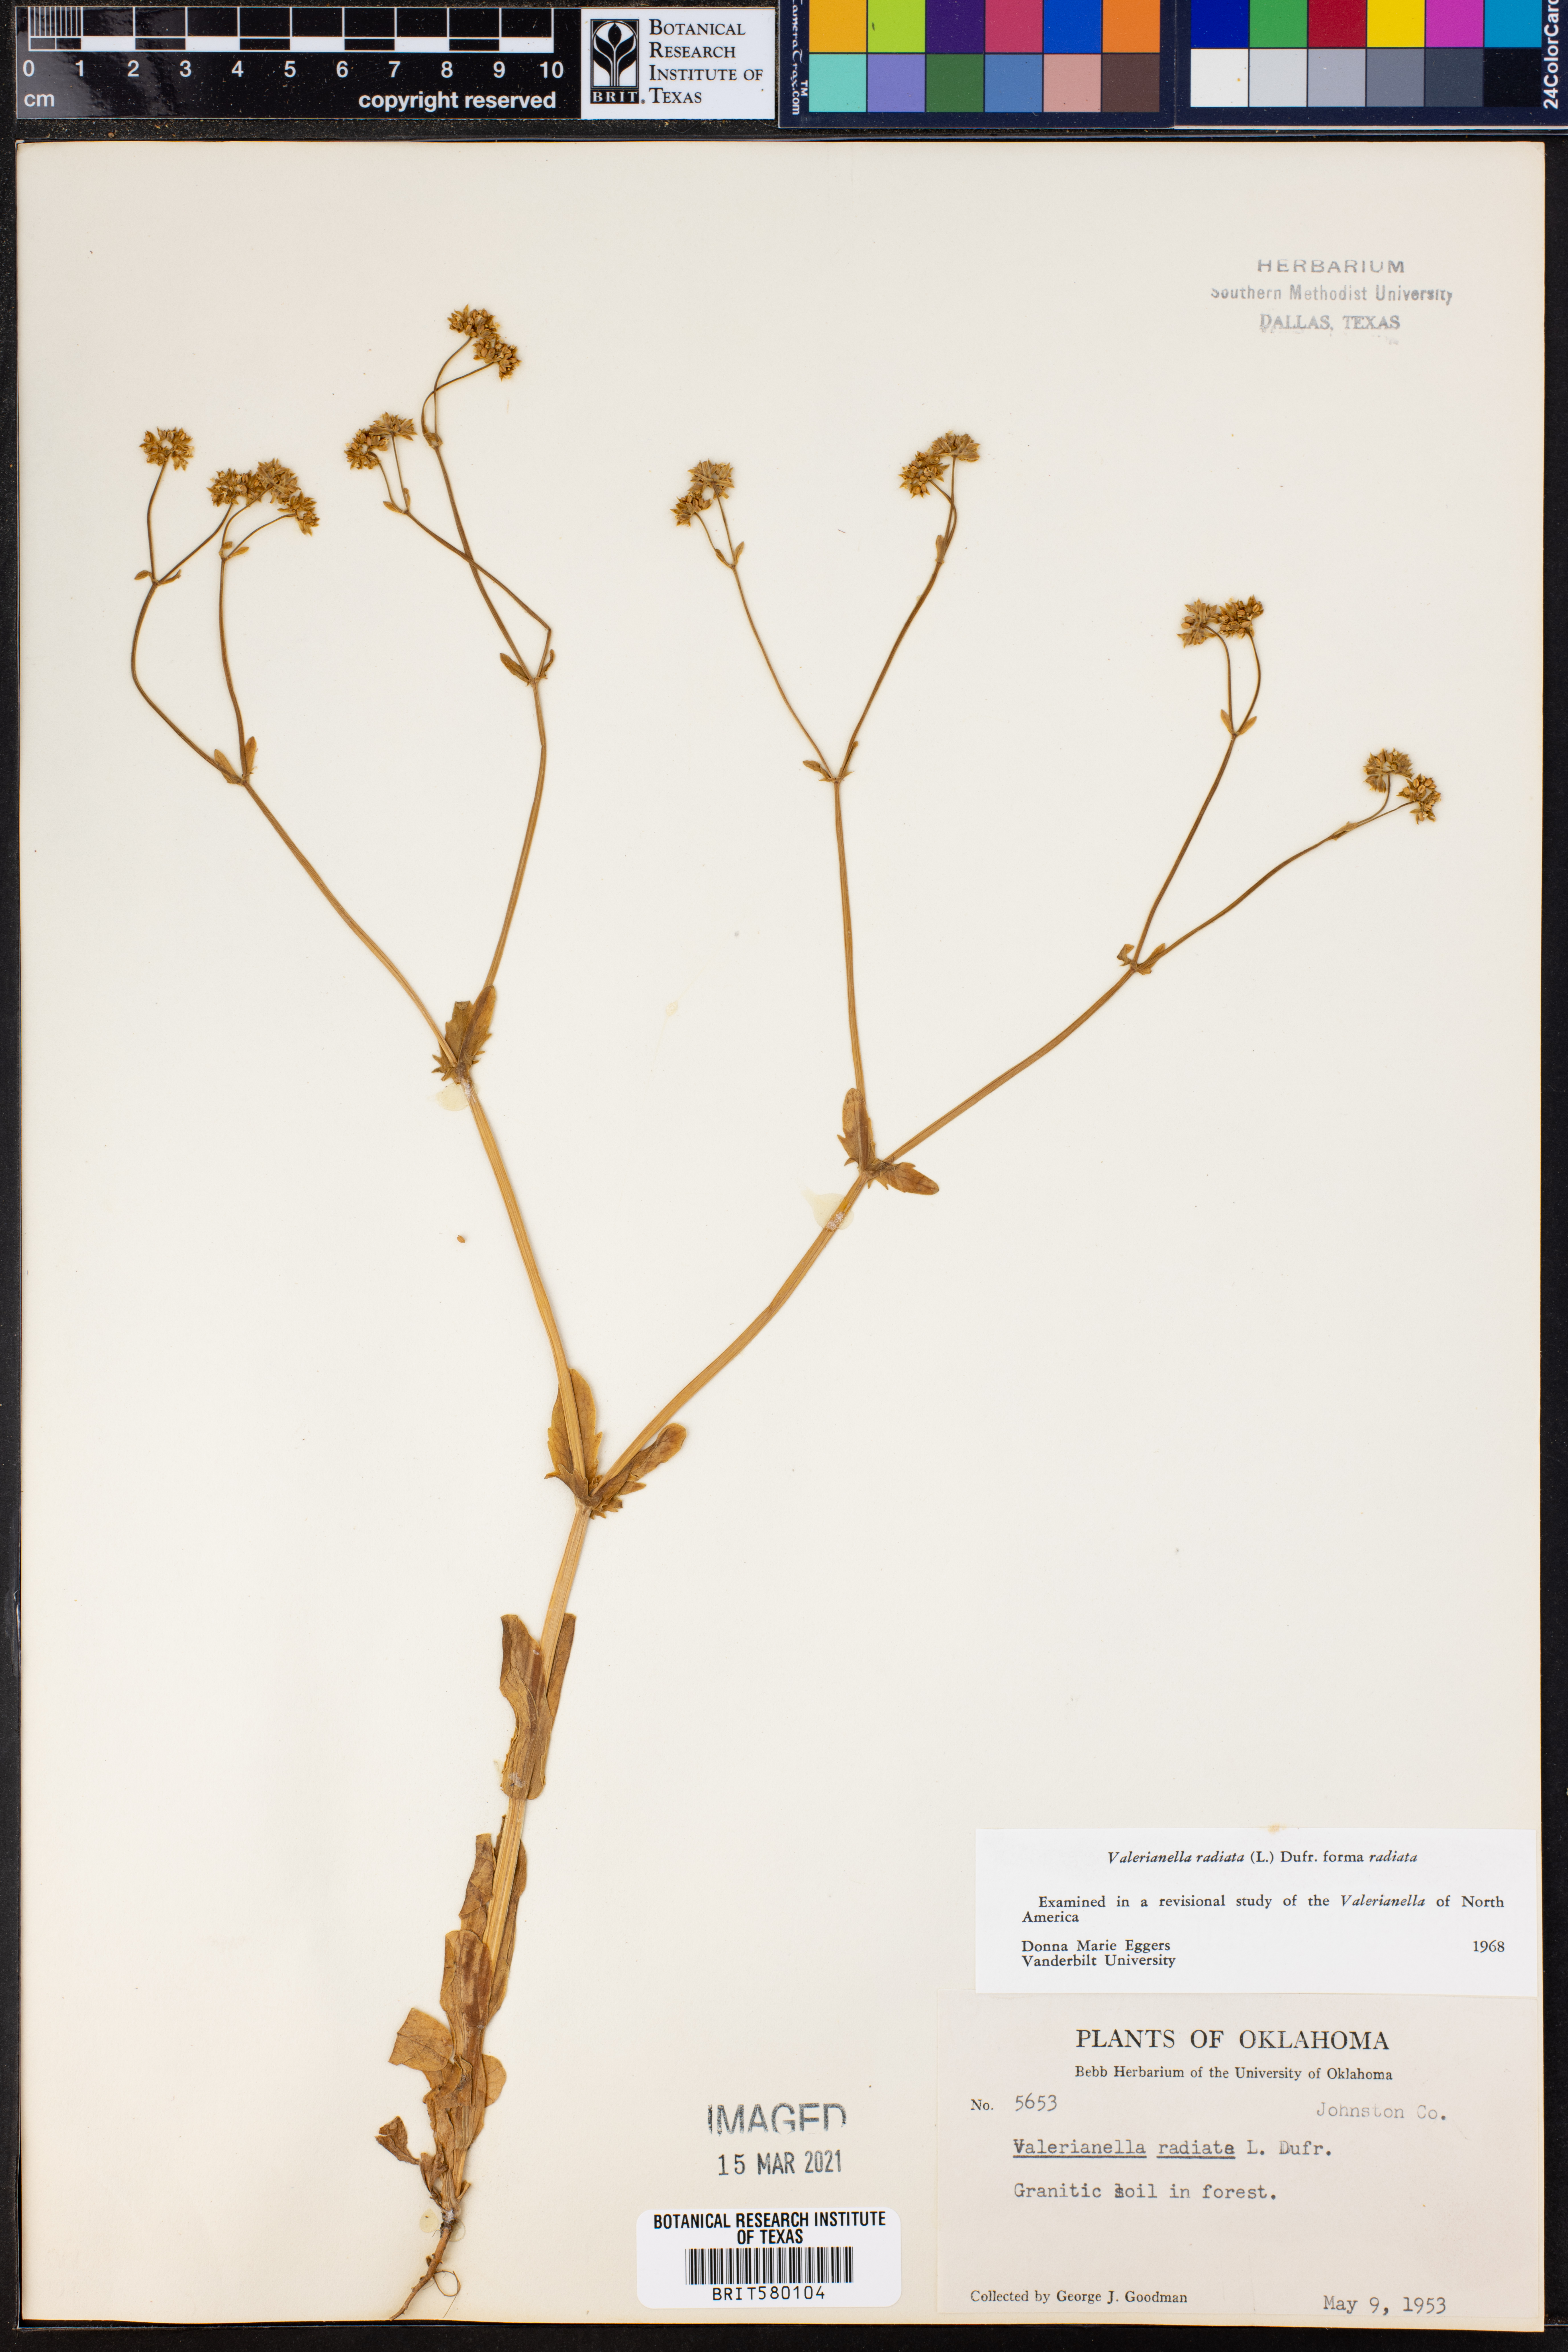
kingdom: Plantae
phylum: Tracheophyta
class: Magnoliopsida
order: Dipsacales
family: Caprifoliaceae
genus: Valerianella
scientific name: Valerianella radiata
